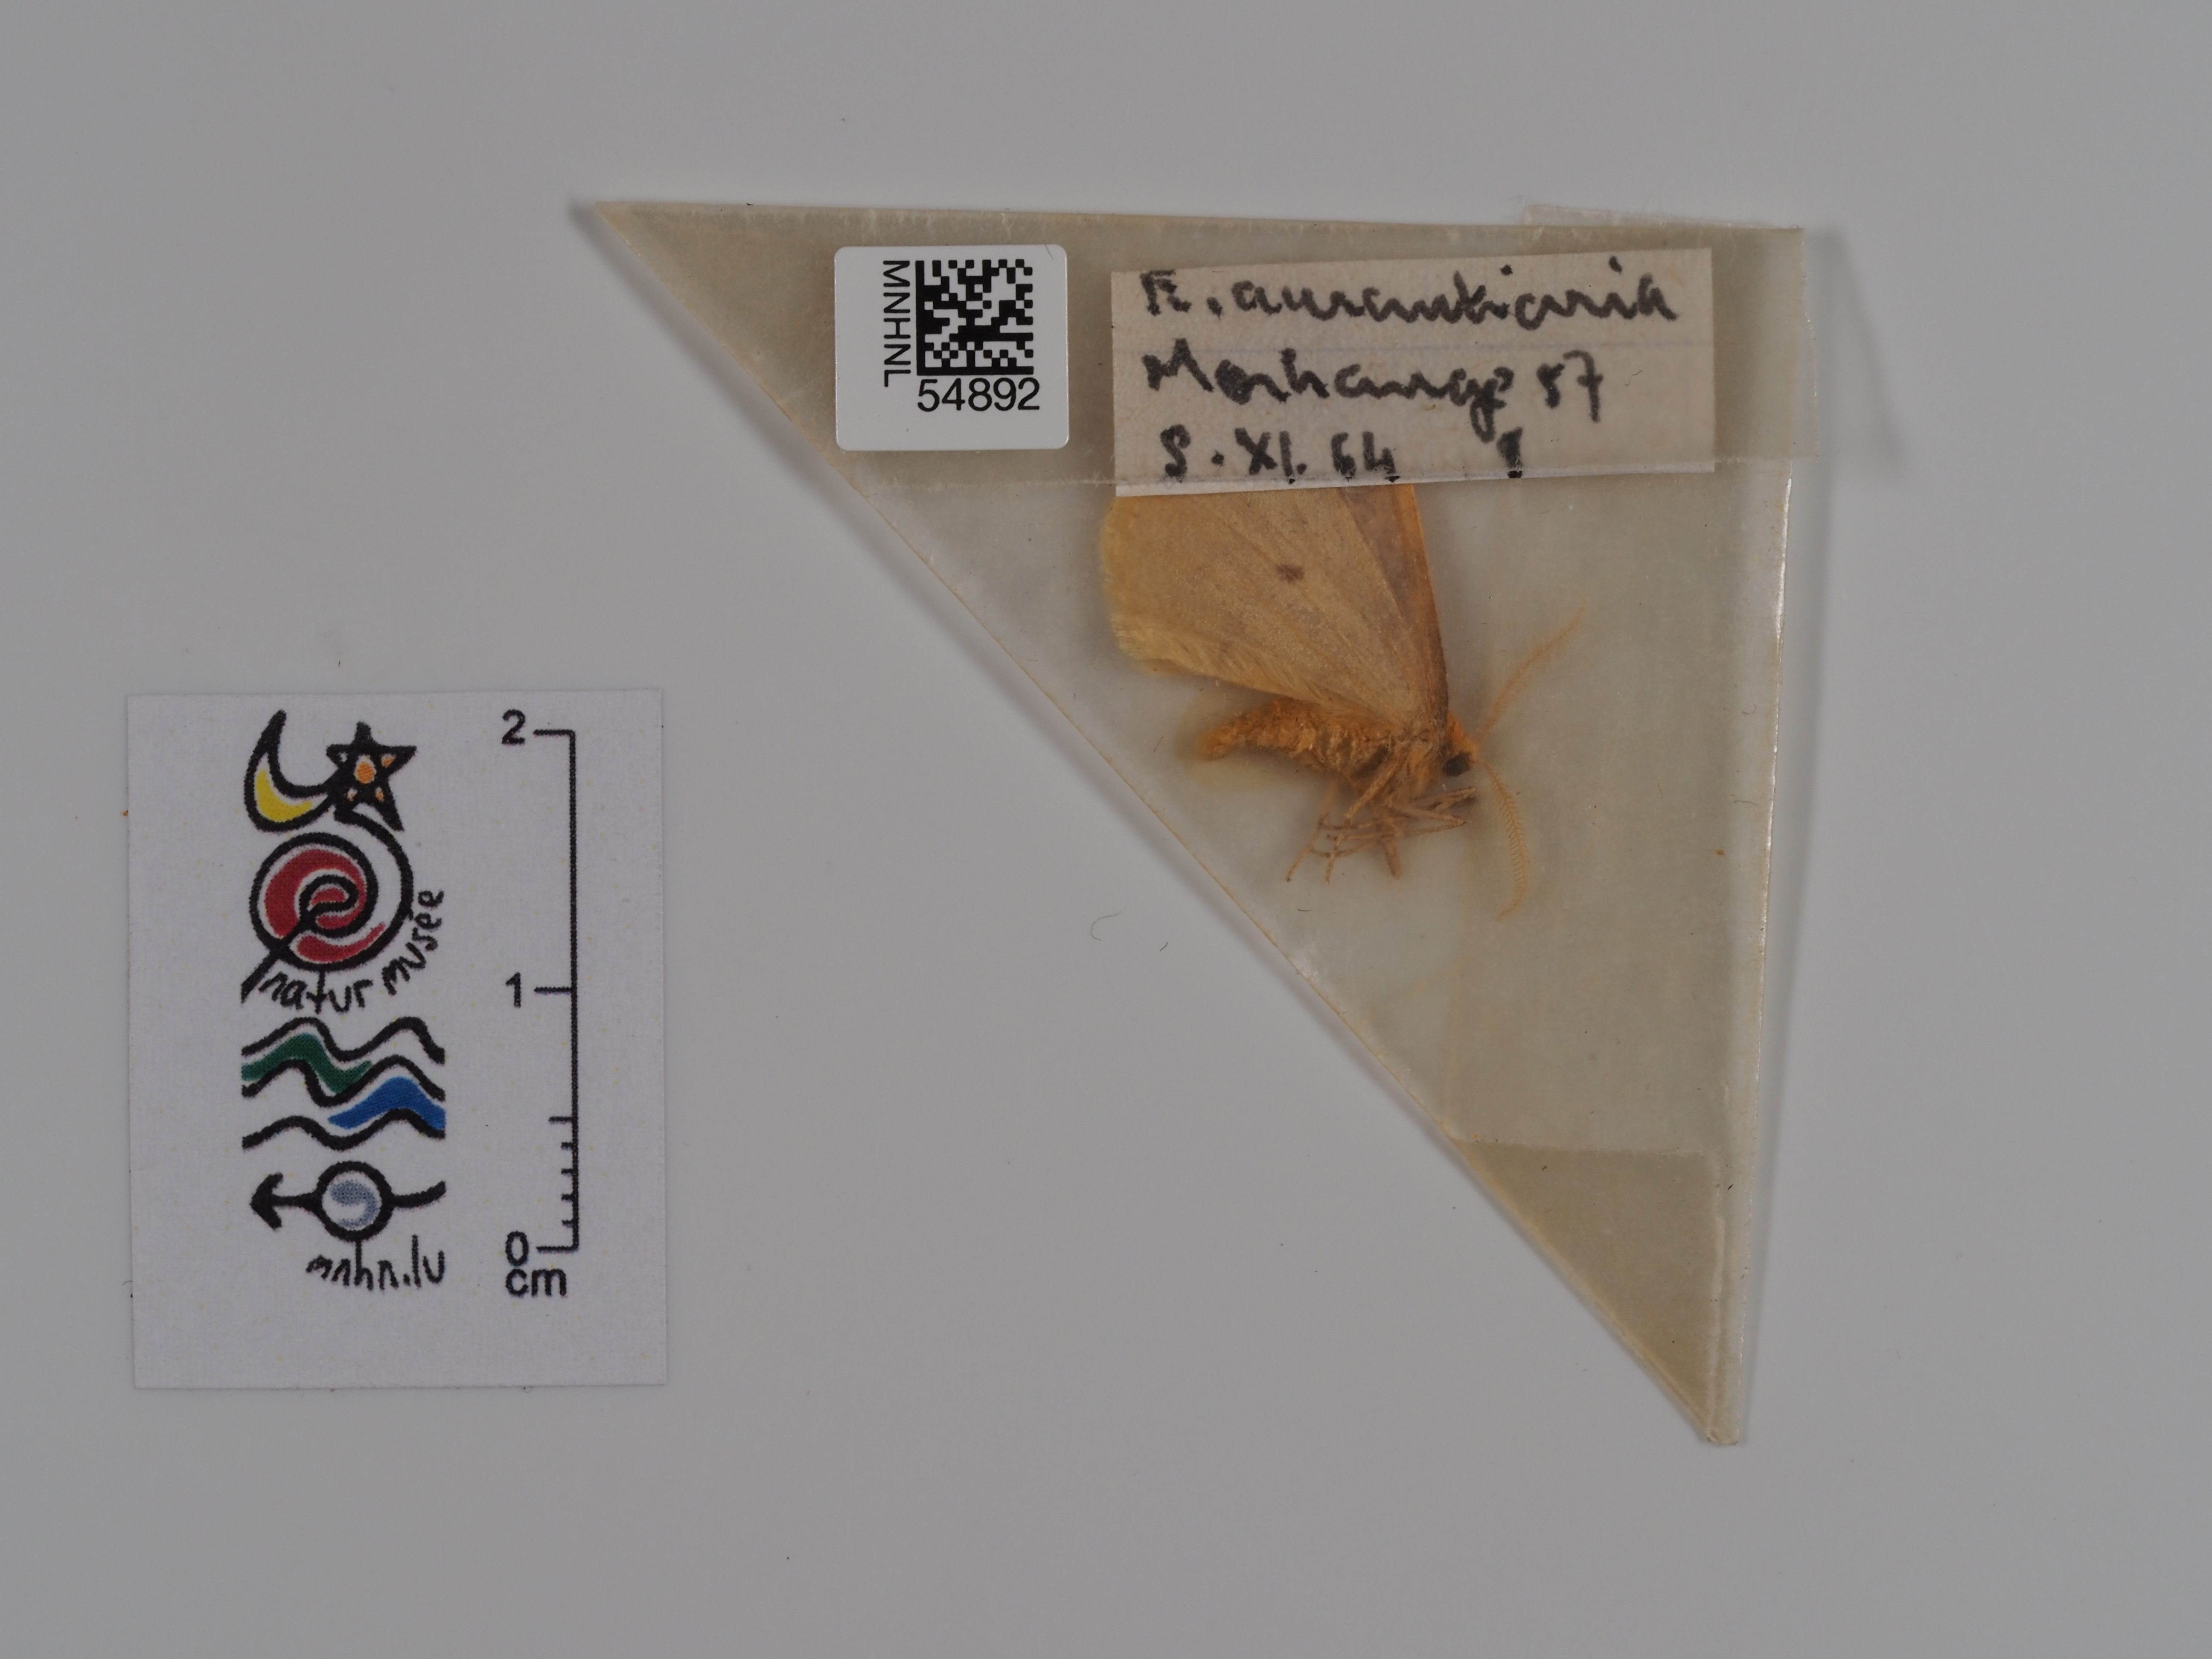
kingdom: Animalia
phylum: Arthropoda
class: Insecta
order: Lepidoptera
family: Geometridae
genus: Erannis
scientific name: Erannis
